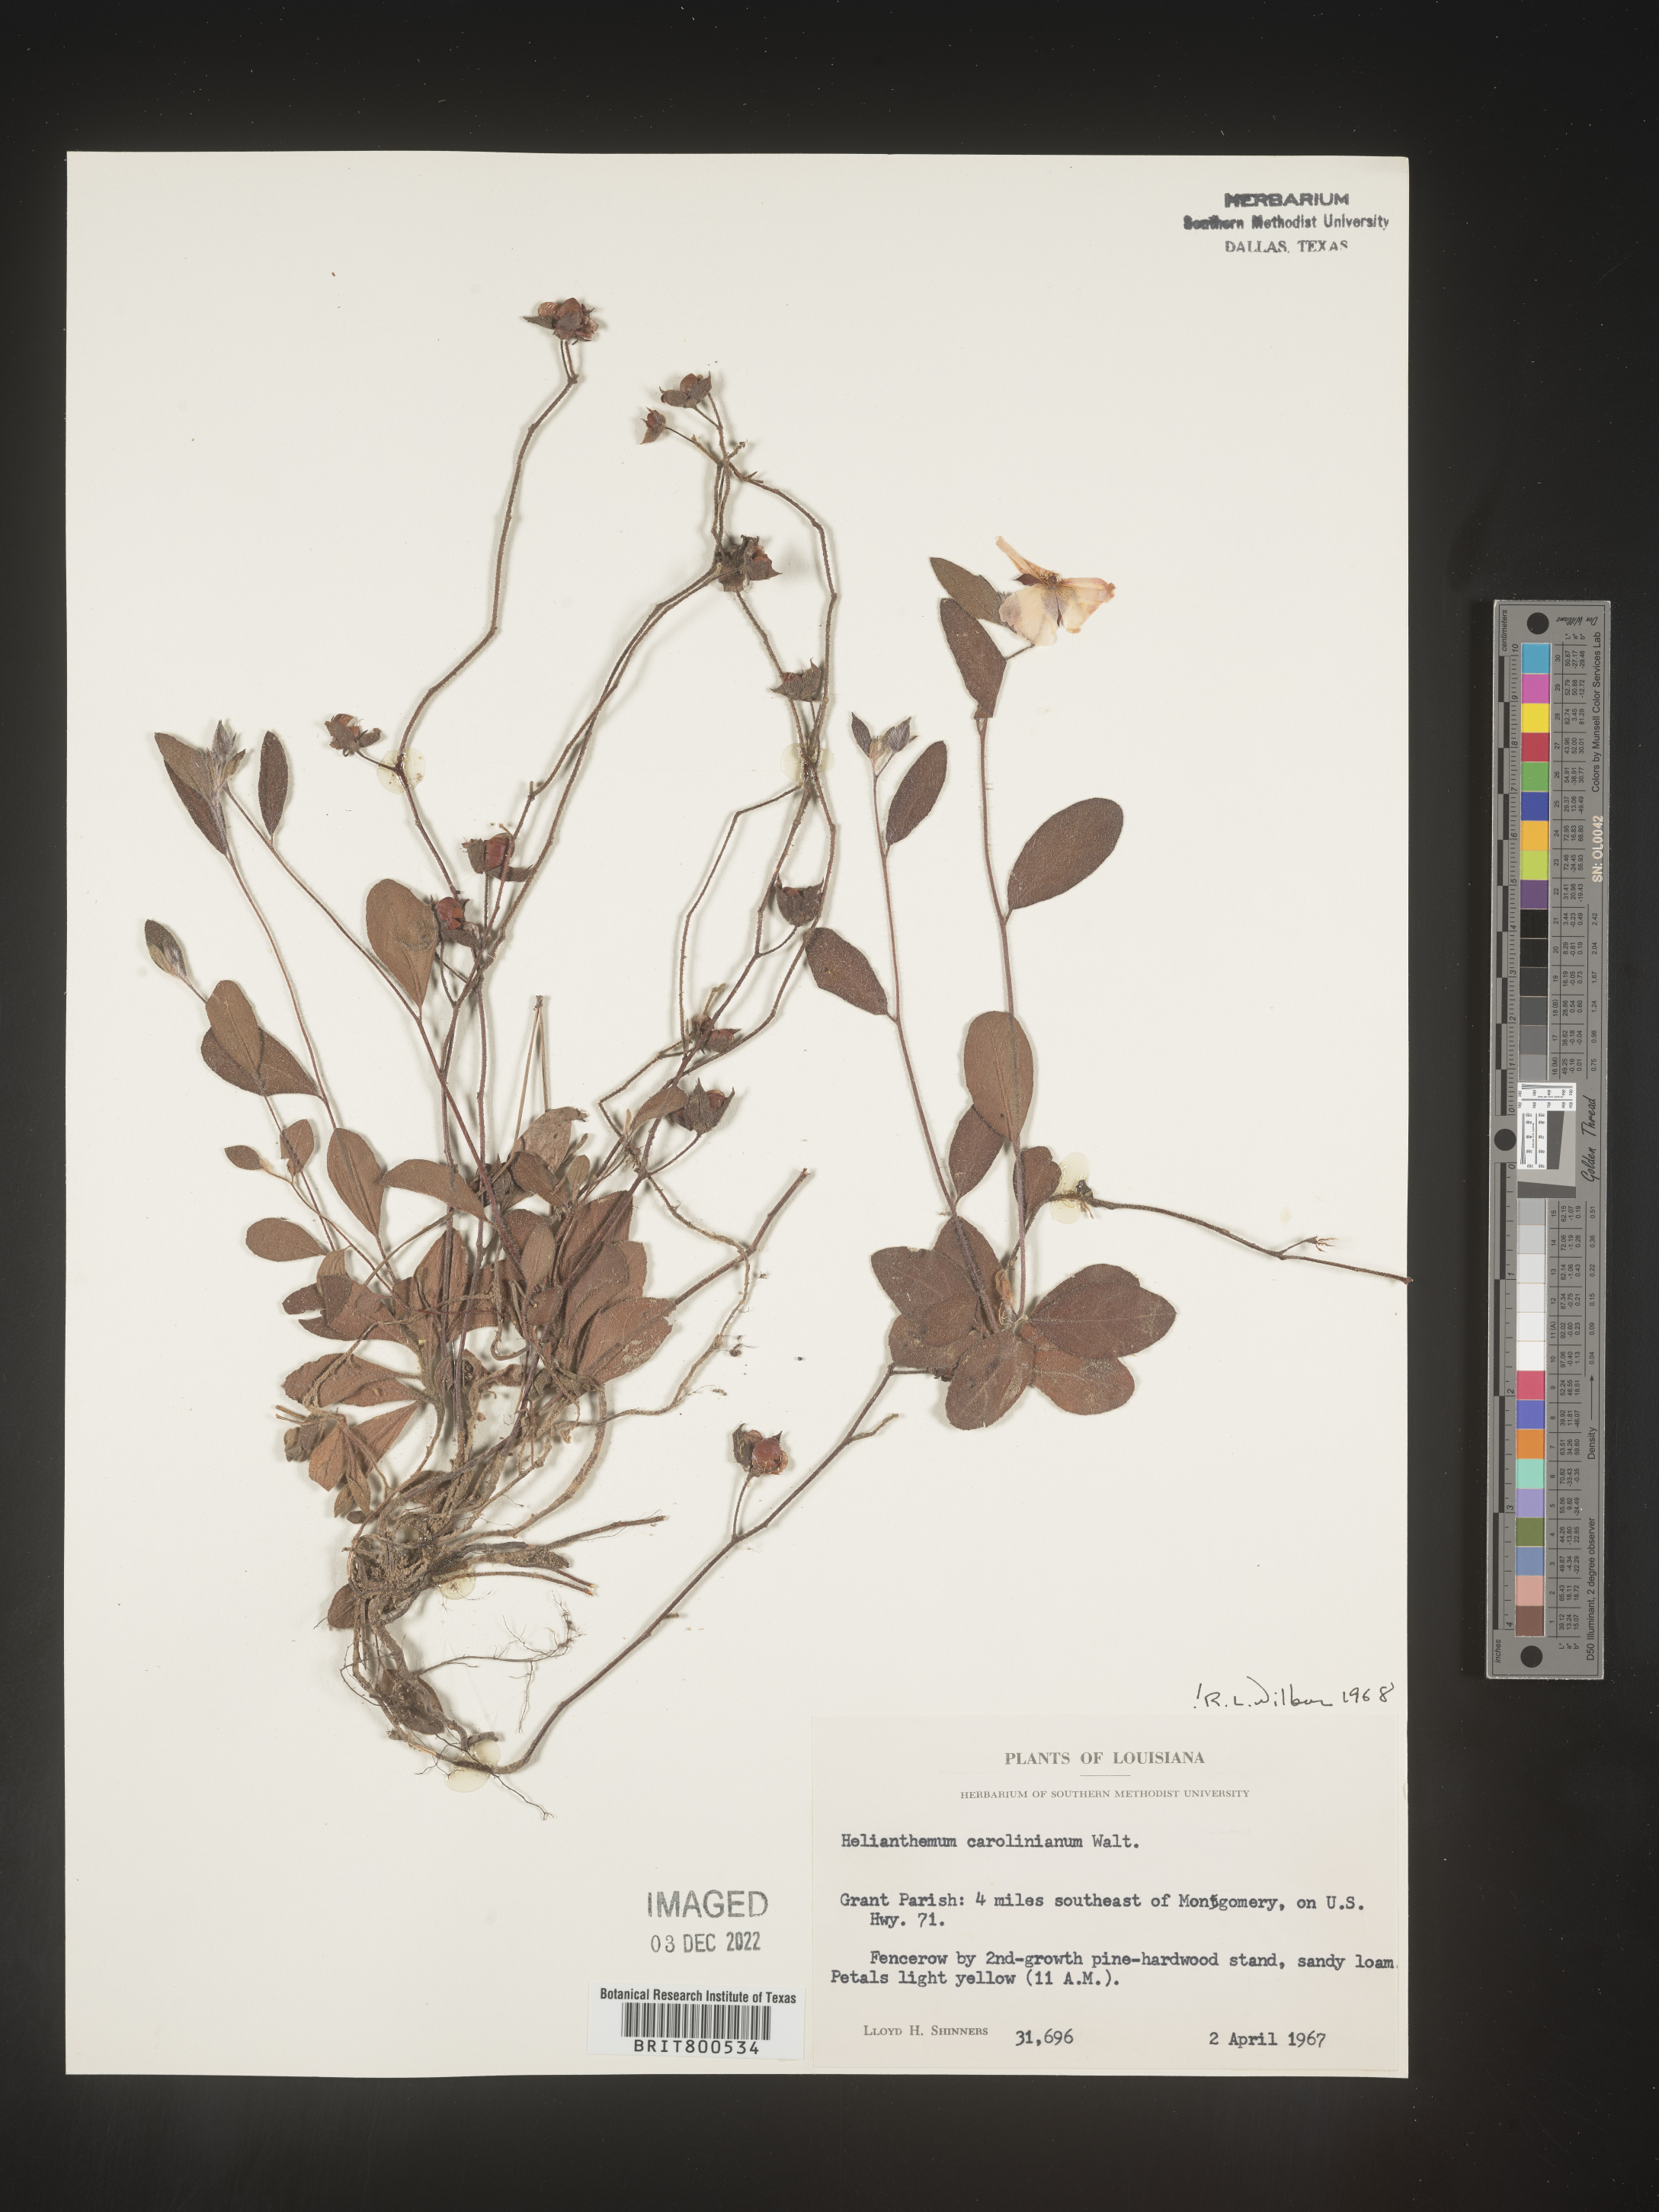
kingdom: Plantae
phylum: Tracheophyta
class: Magnoliopsida
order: Malvales
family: Cistaceae
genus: Crocanthemum
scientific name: Crocanthemum carolinianum
